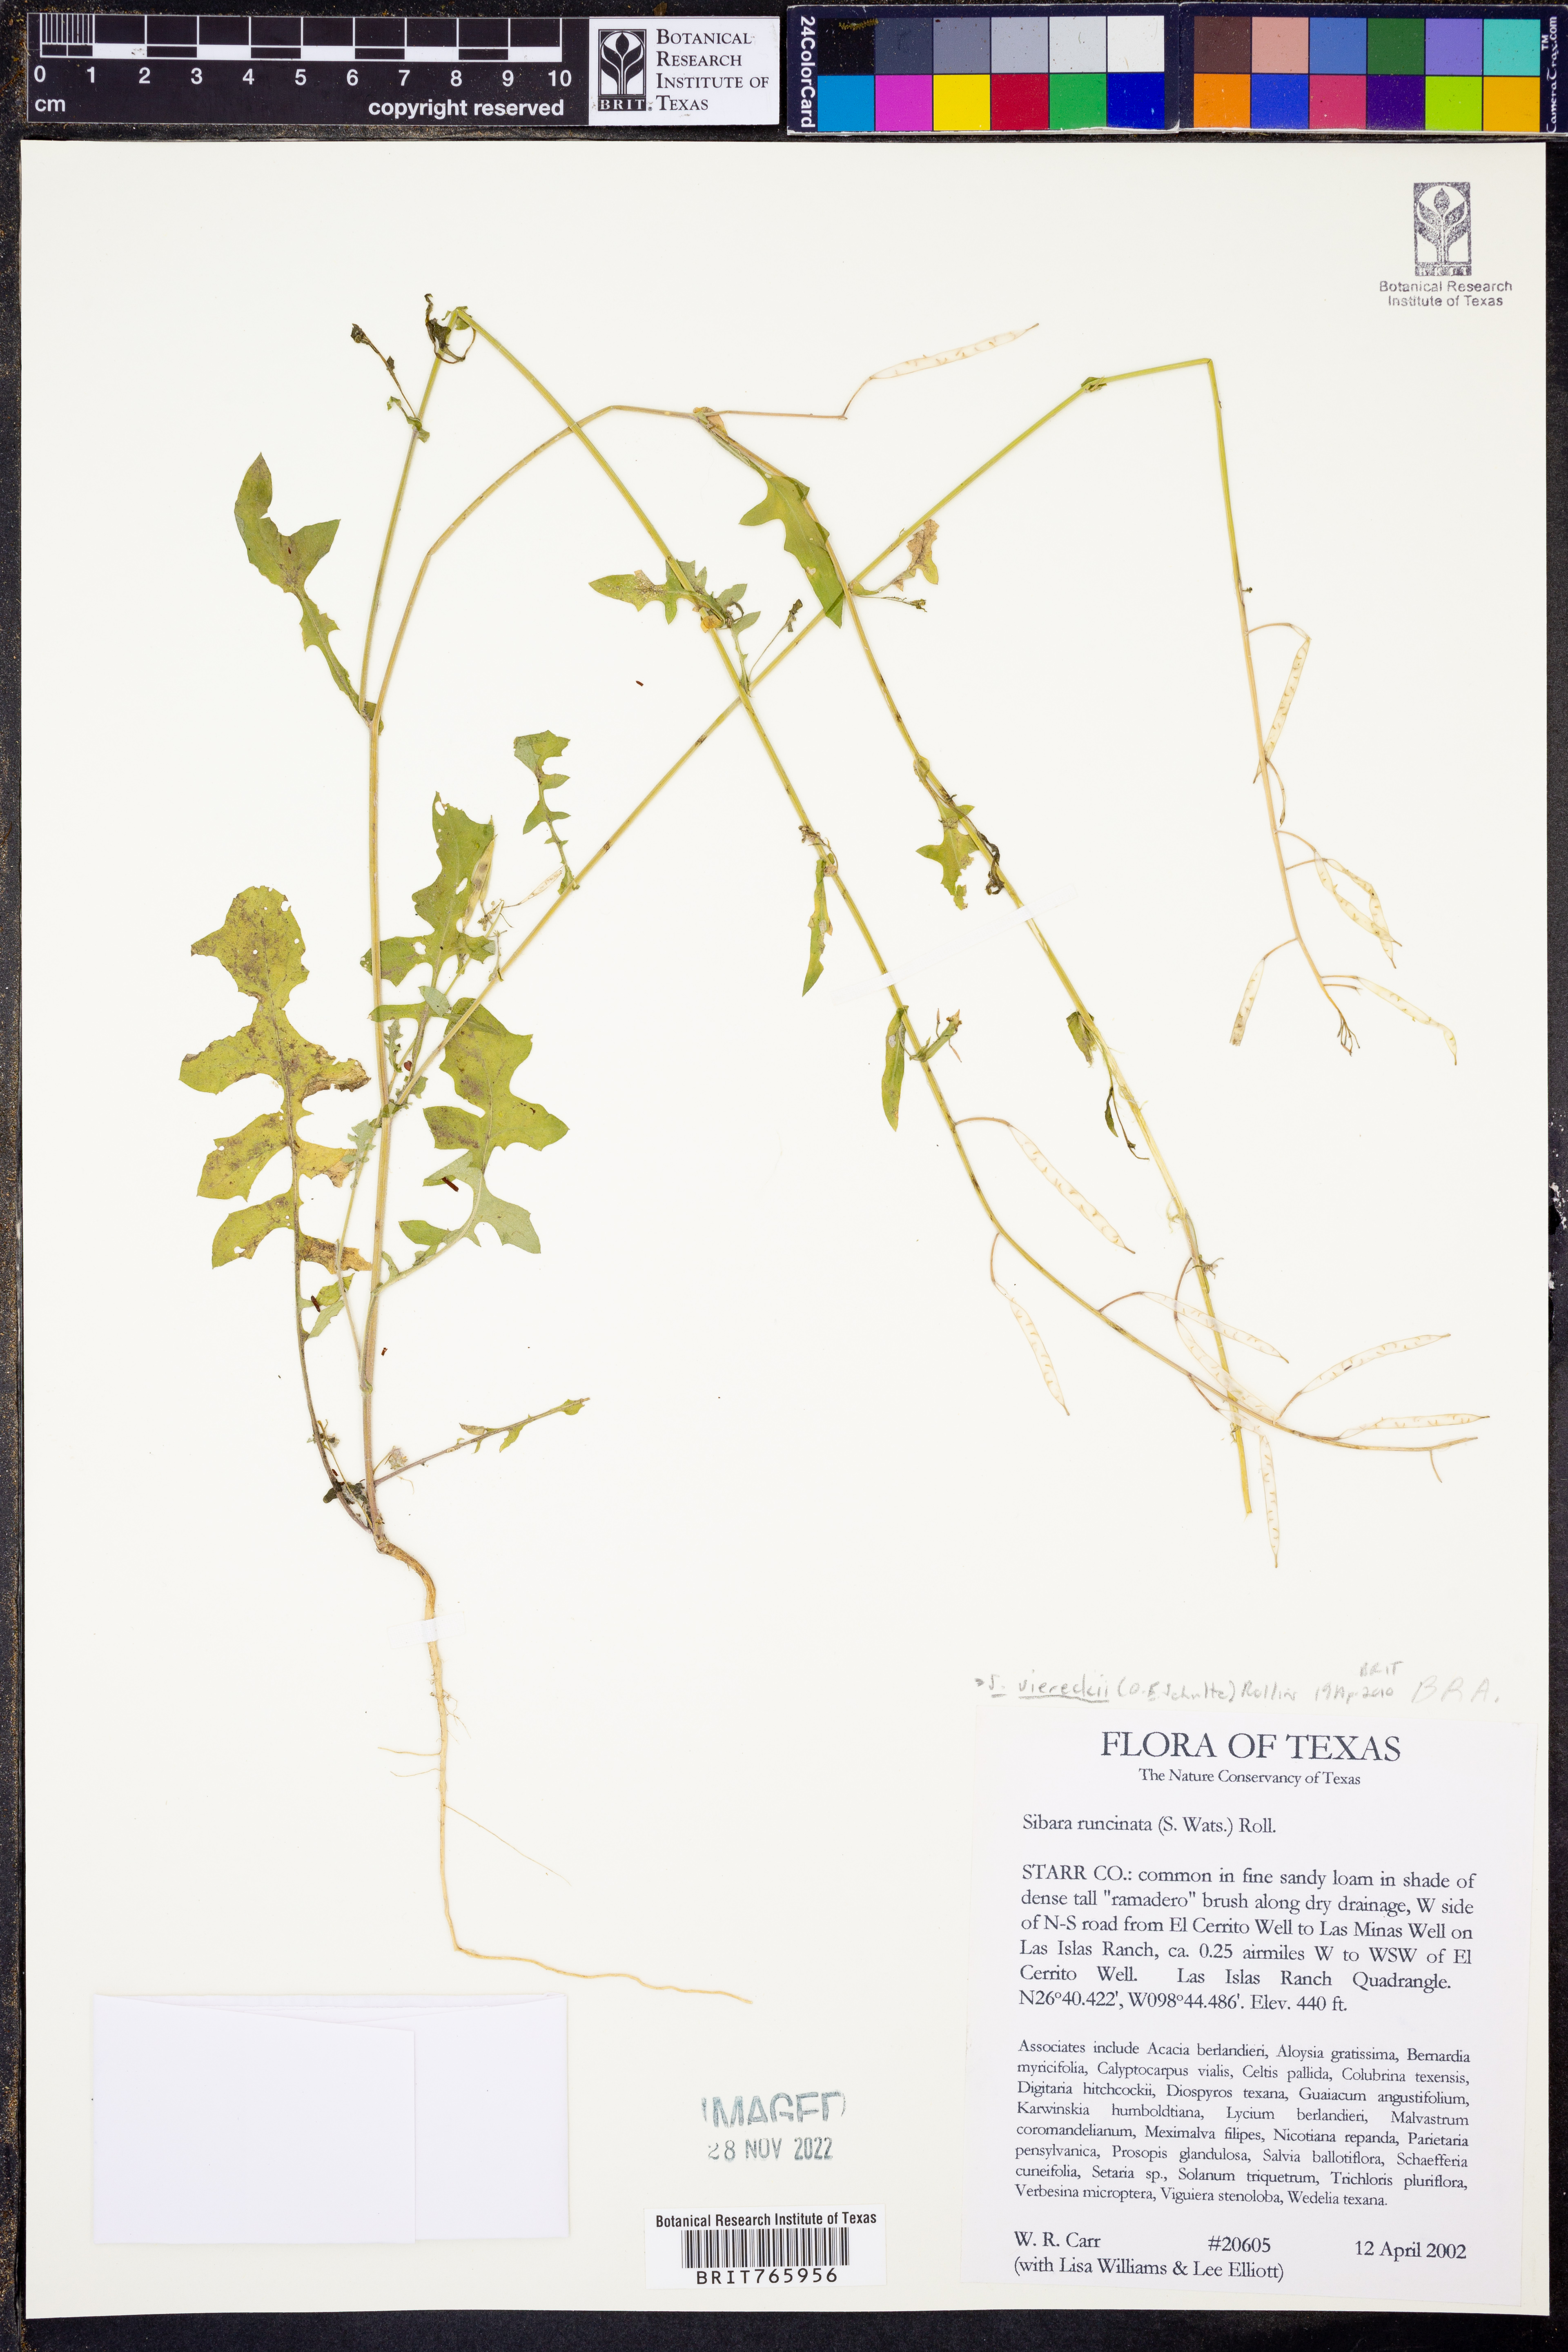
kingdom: Plantae
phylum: Tracheophyta
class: Magnoliopsida
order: Brassicales
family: Brassicaceae
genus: Phravenia
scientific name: Phravenia viereckii
